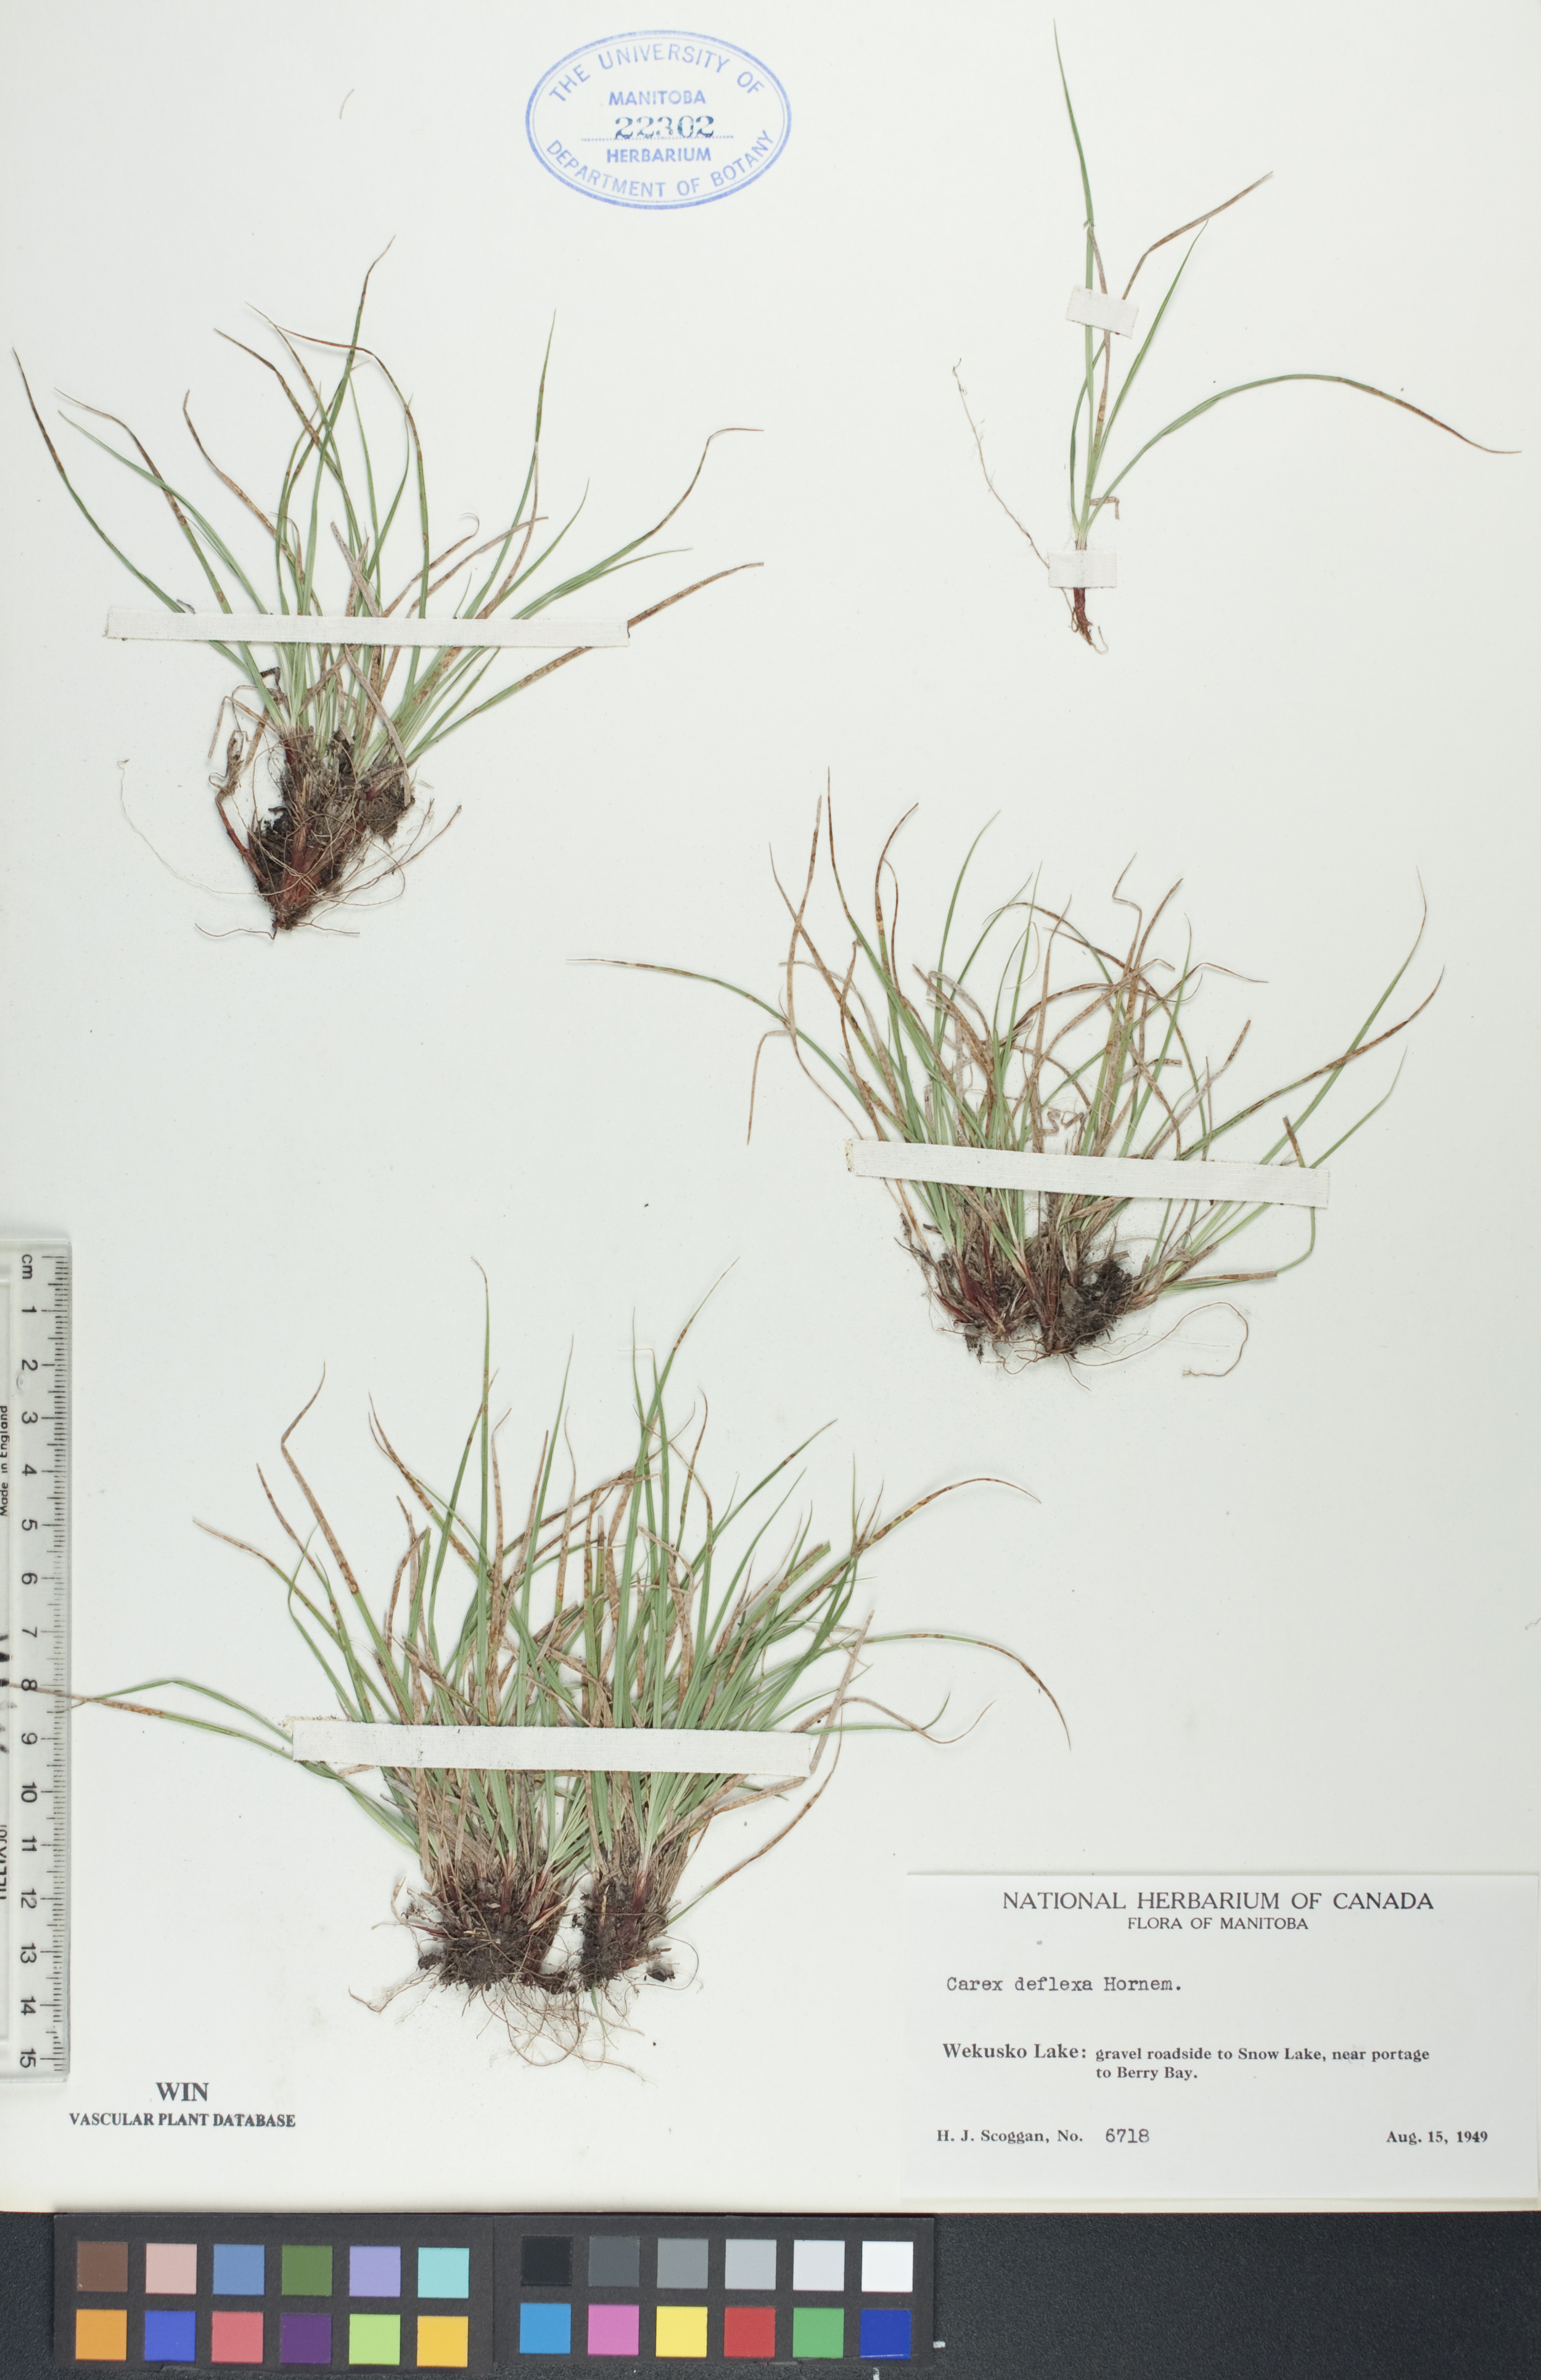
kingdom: Plantae
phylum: Tracheophyta
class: Liliopsida
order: Poales
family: Cyperaceae
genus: Carex
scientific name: Carex deflexa
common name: Bent northern sedge
